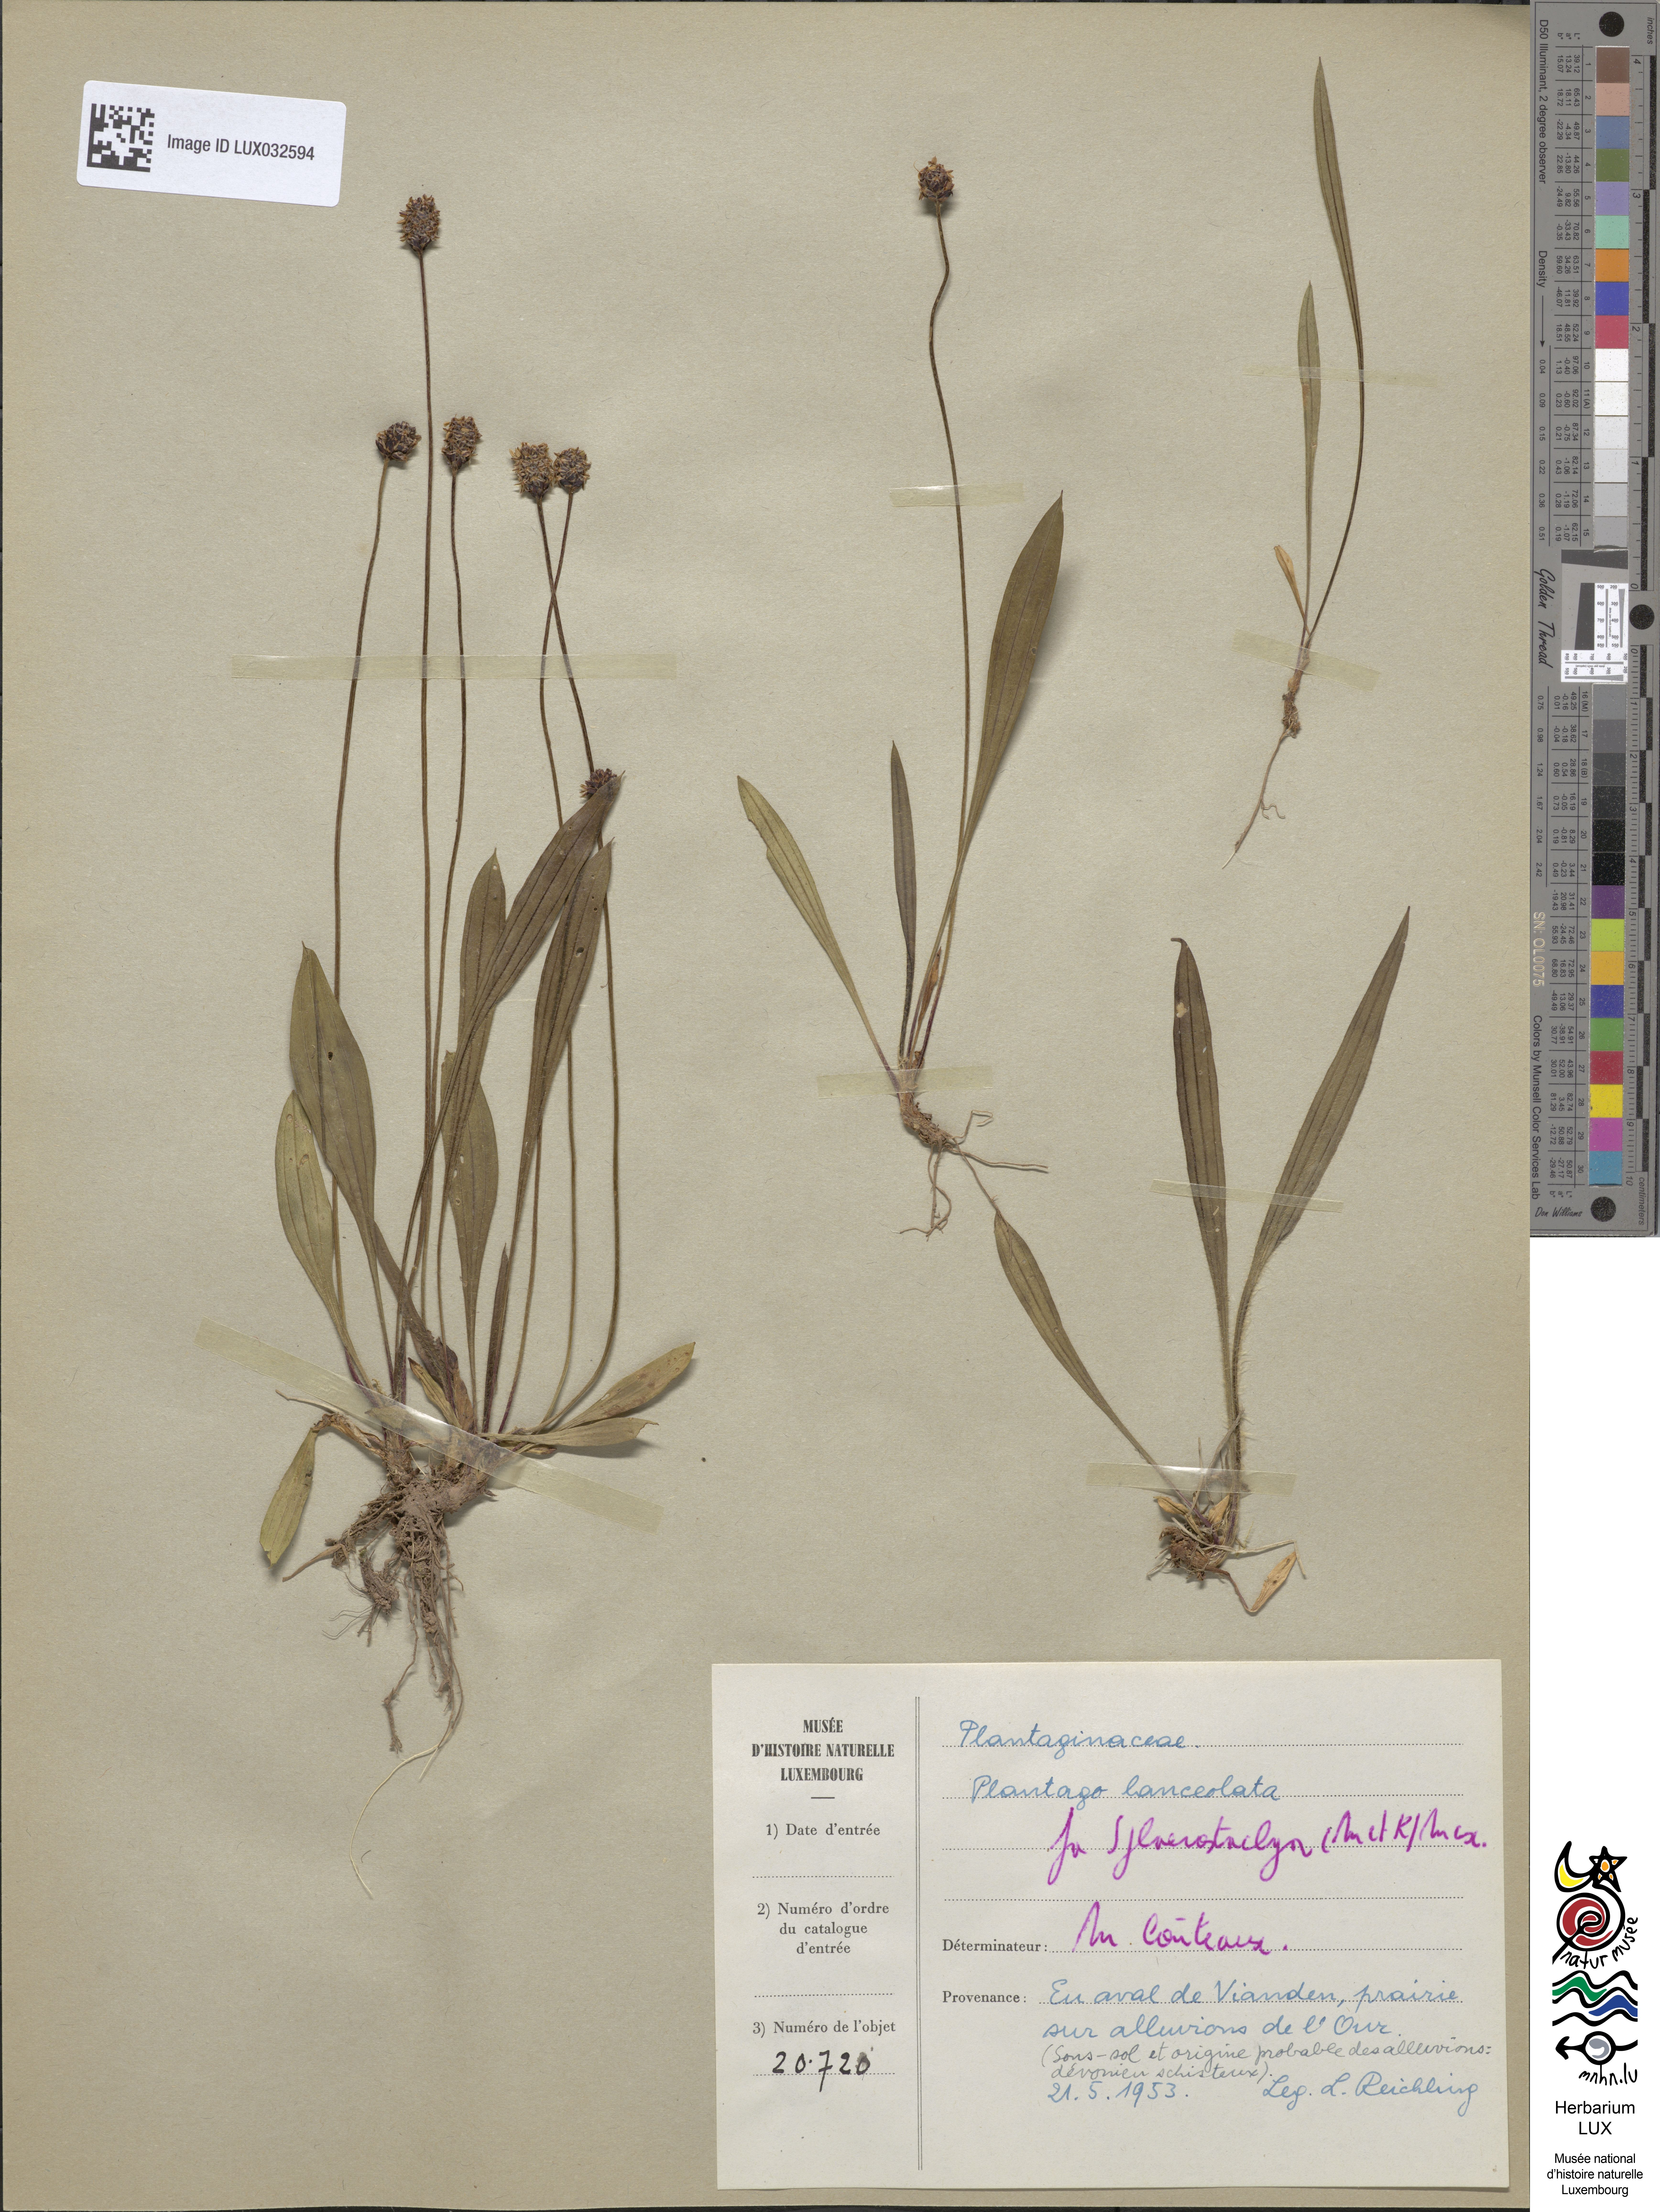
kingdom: Plantae
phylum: Tracheophyta
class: Magnoliopsida
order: Lamiales
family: Plantaginaceae
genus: Plantago
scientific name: Plantago lanceolata
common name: Ribwort plantain
